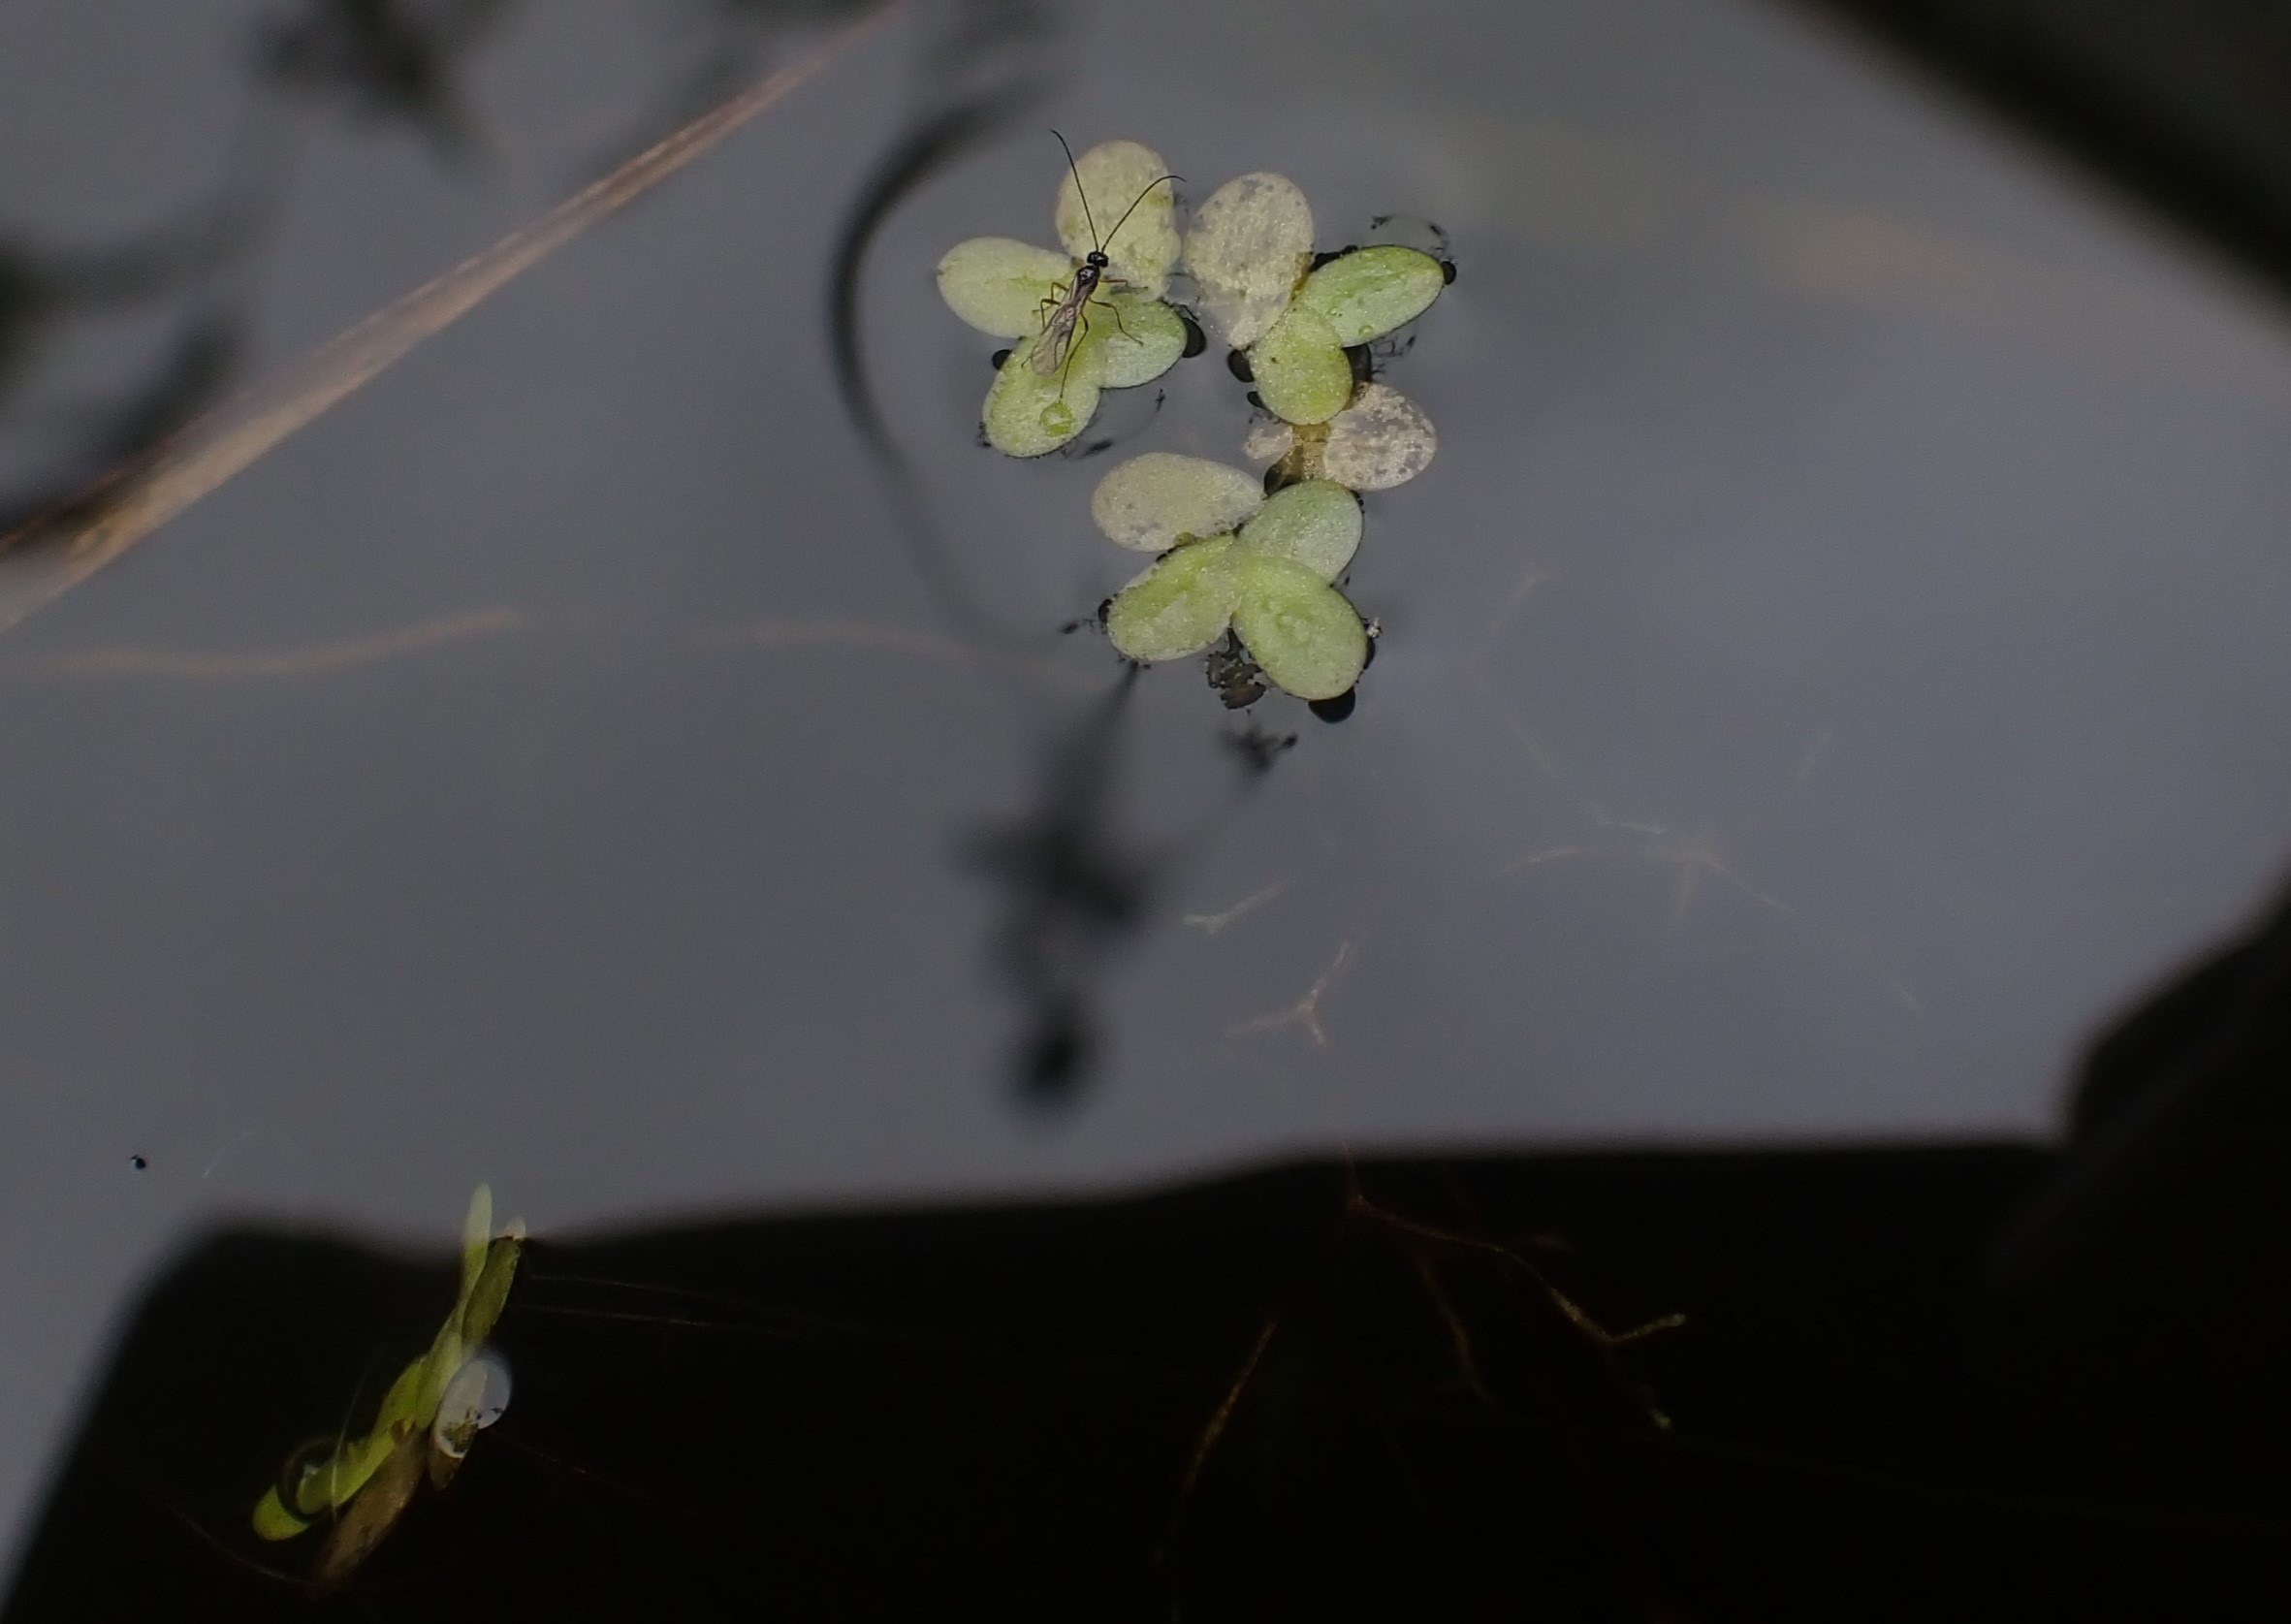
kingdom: Plantae
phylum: Tracheophyta
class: Liliopsida
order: Alismatales
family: Araceae
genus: Lemna
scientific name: Lemna minor
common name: Liden andemad
